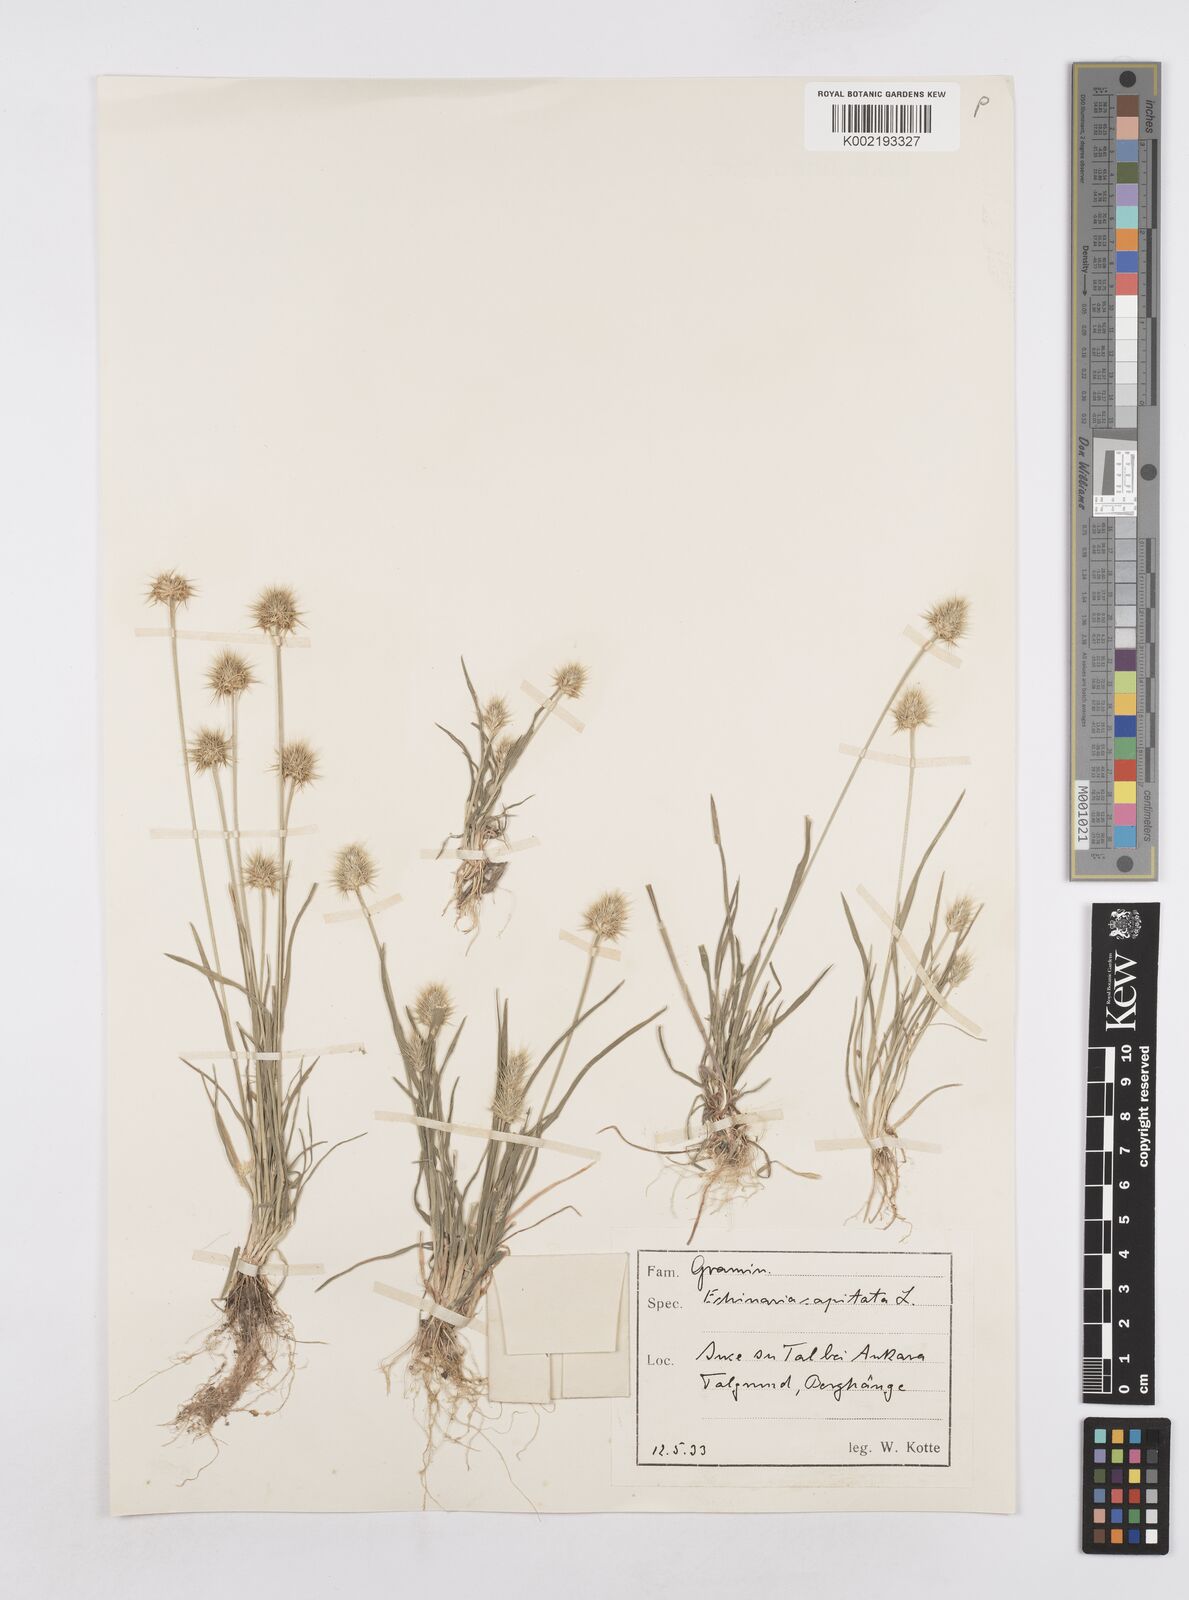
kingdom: Plantae
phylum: Tracheophyta
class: Liliopsida
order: Poales
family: Poaceae
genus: Echinaria
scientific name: Echinaria capitata
